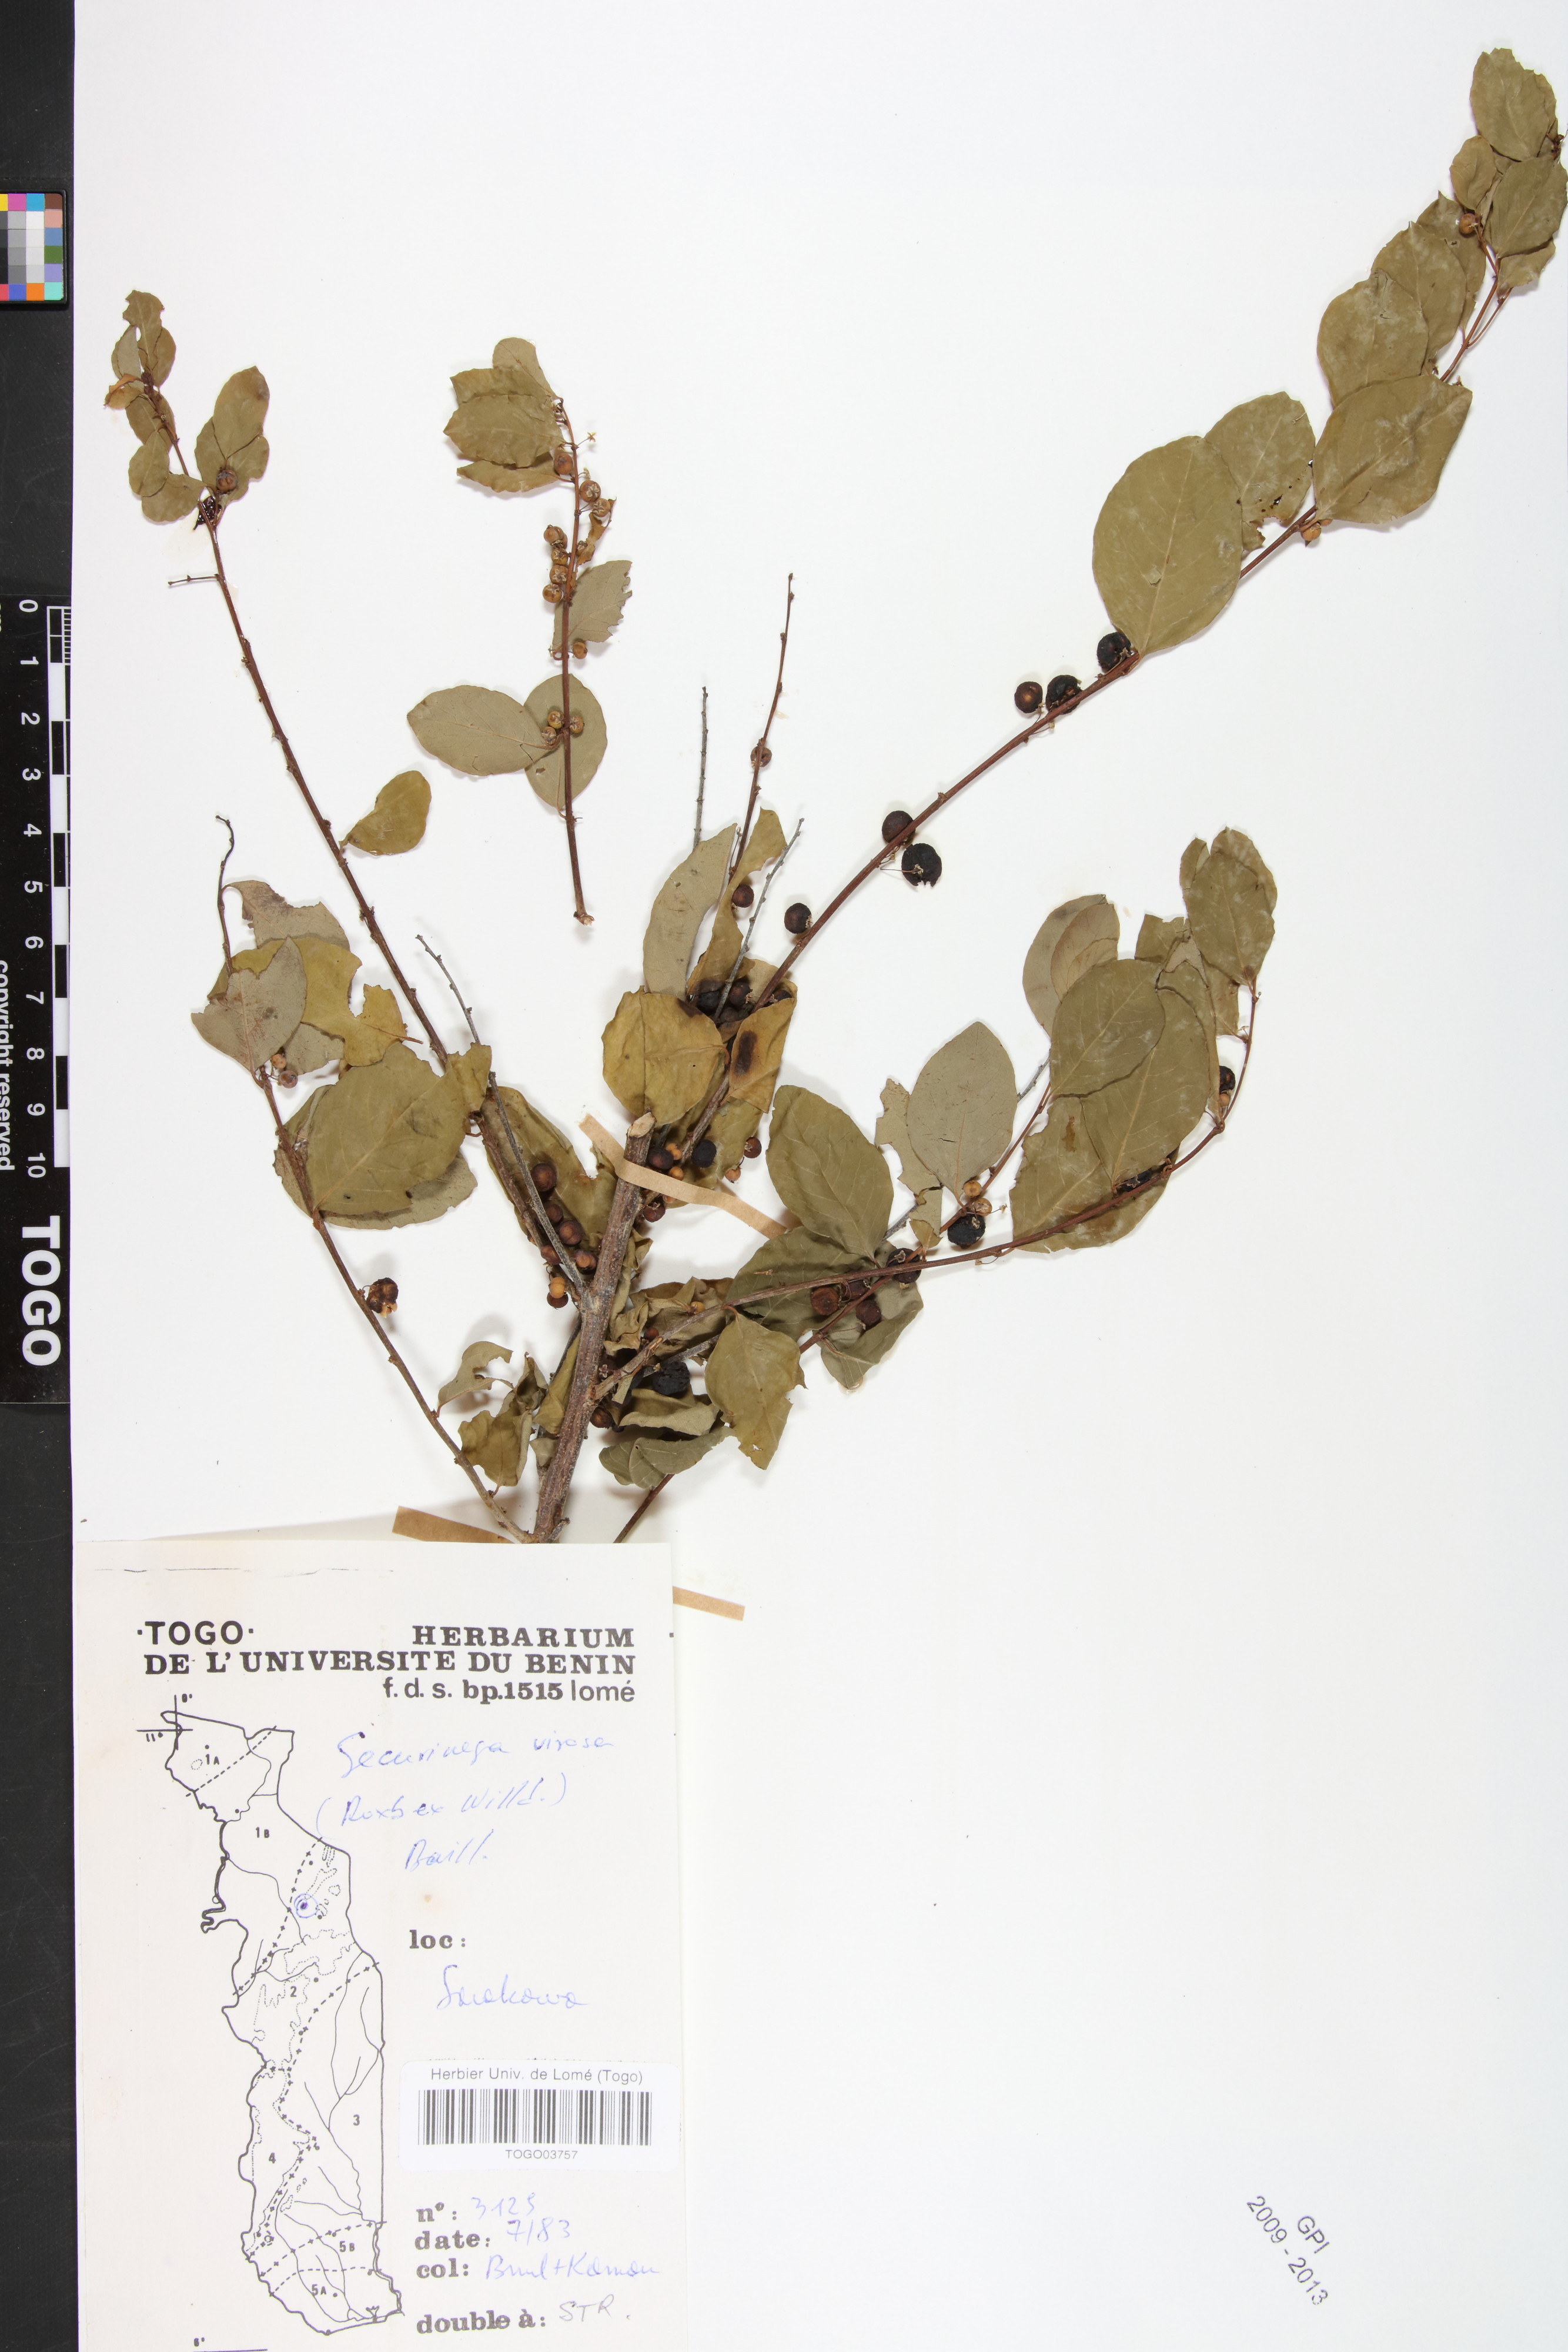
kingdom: Plantae
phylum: Tracheophyta
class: Magnoliopsida
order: Malpighiales
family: Phyllanthaceae
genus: Flueggea
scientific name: Flueggea virosa
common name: Common bushweed
